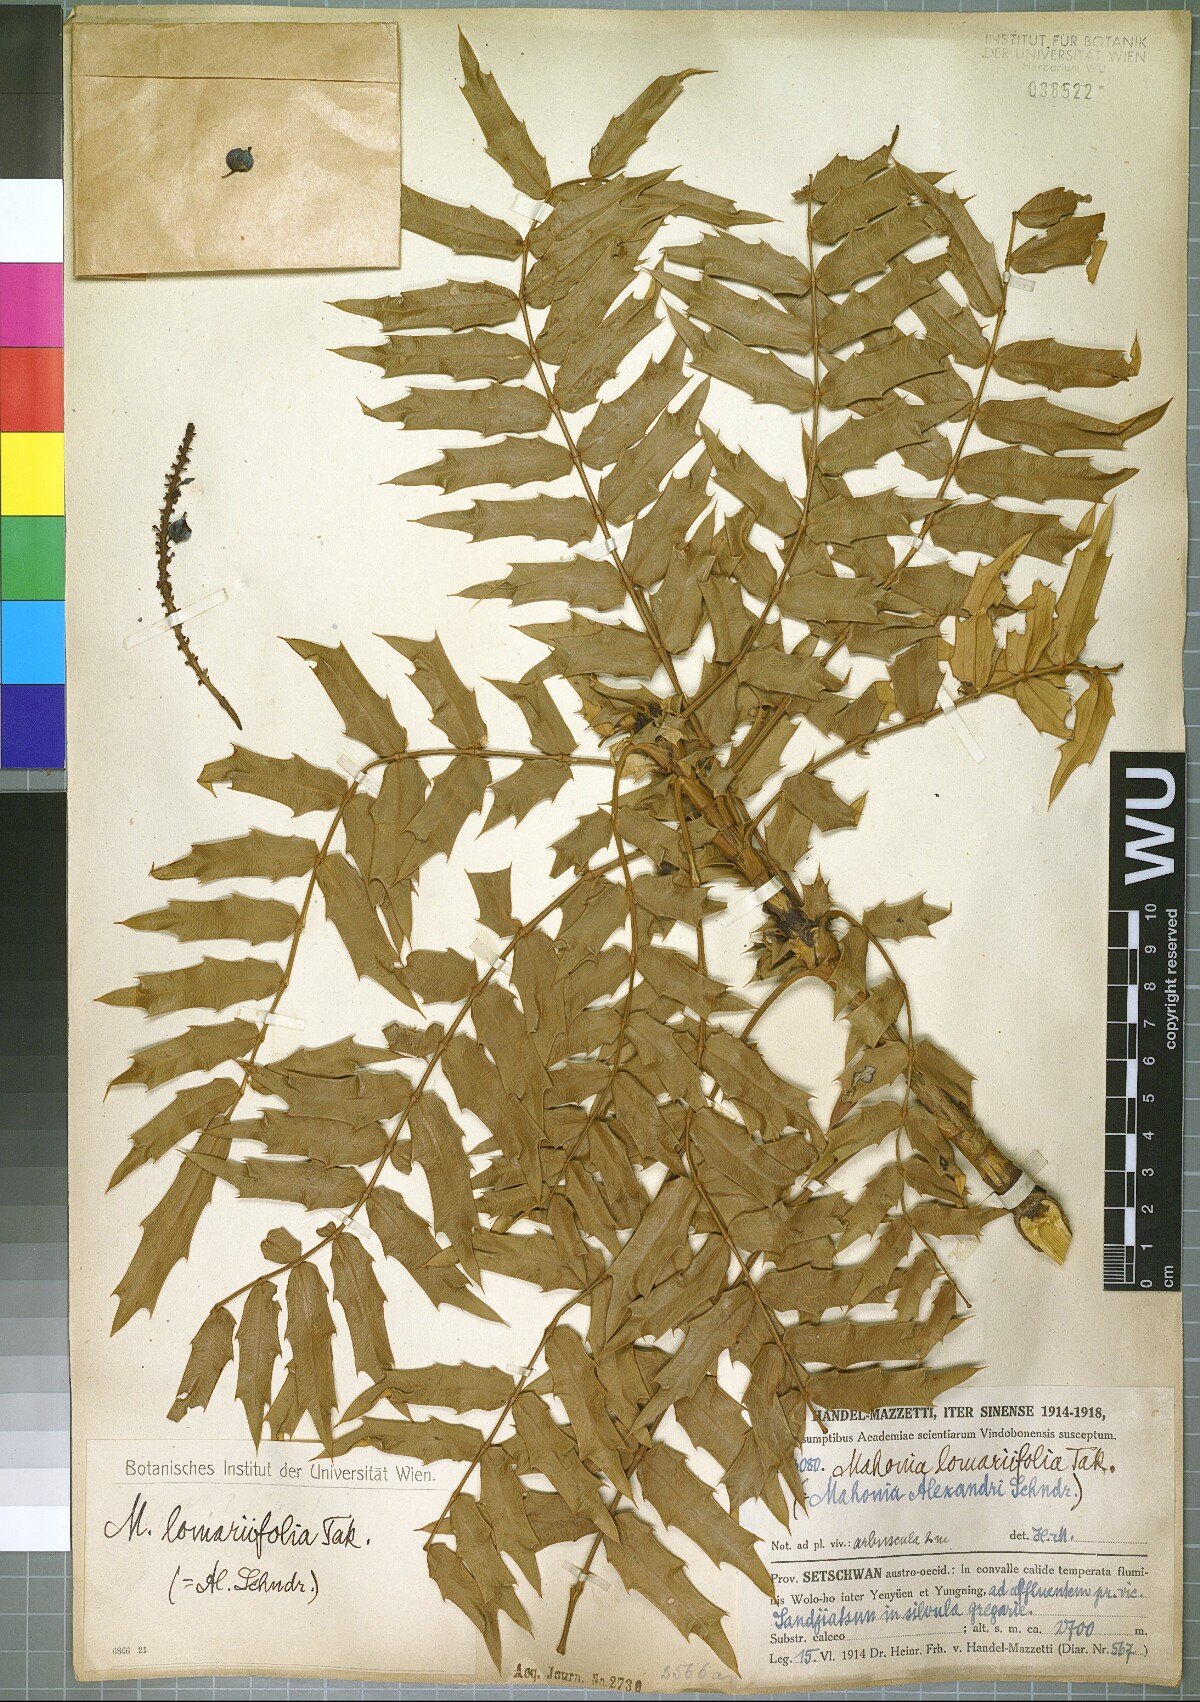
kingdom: Plantae
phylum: Tracheophyta
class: Magnoliopsida
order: Ranunculales
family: Berberidaceae
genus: Mahonia
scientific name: Mahonia oiwakensis
